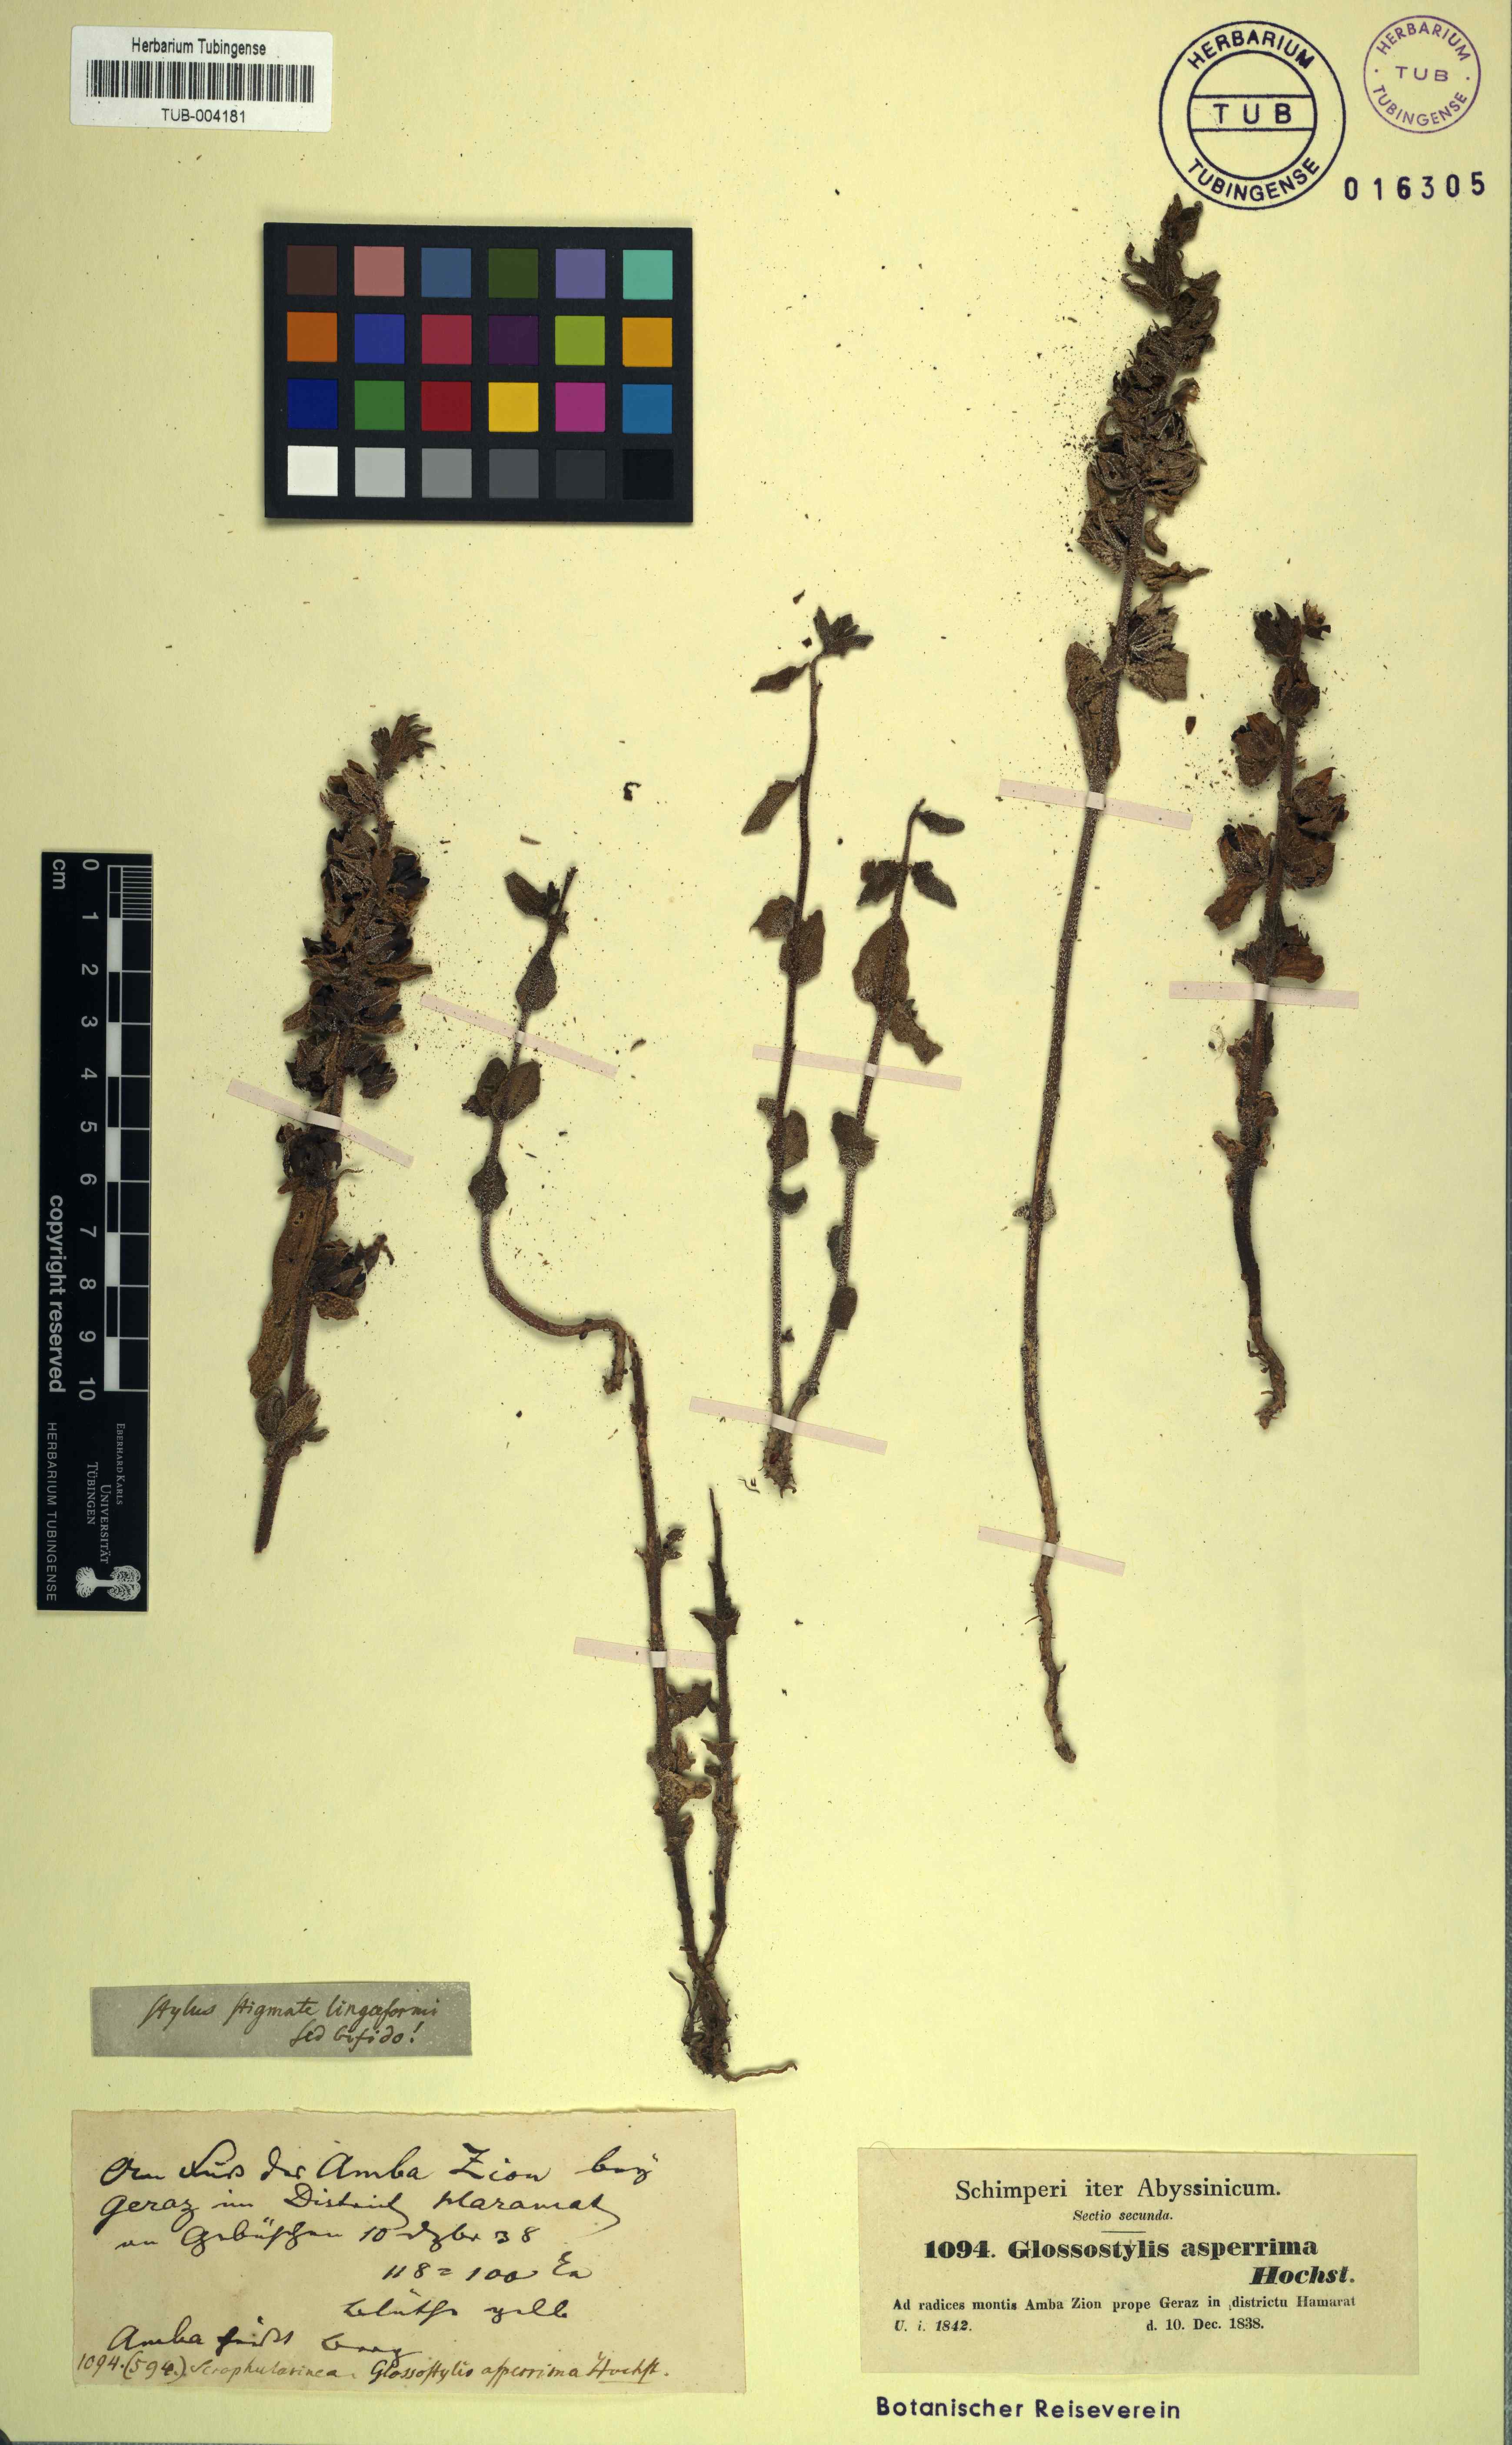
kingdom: Plantae
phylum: Tracheophyta
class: Magnoliopsida
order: Lamiales
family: Orobanchaceae
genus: Alectra
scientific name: Alectra asperrima
